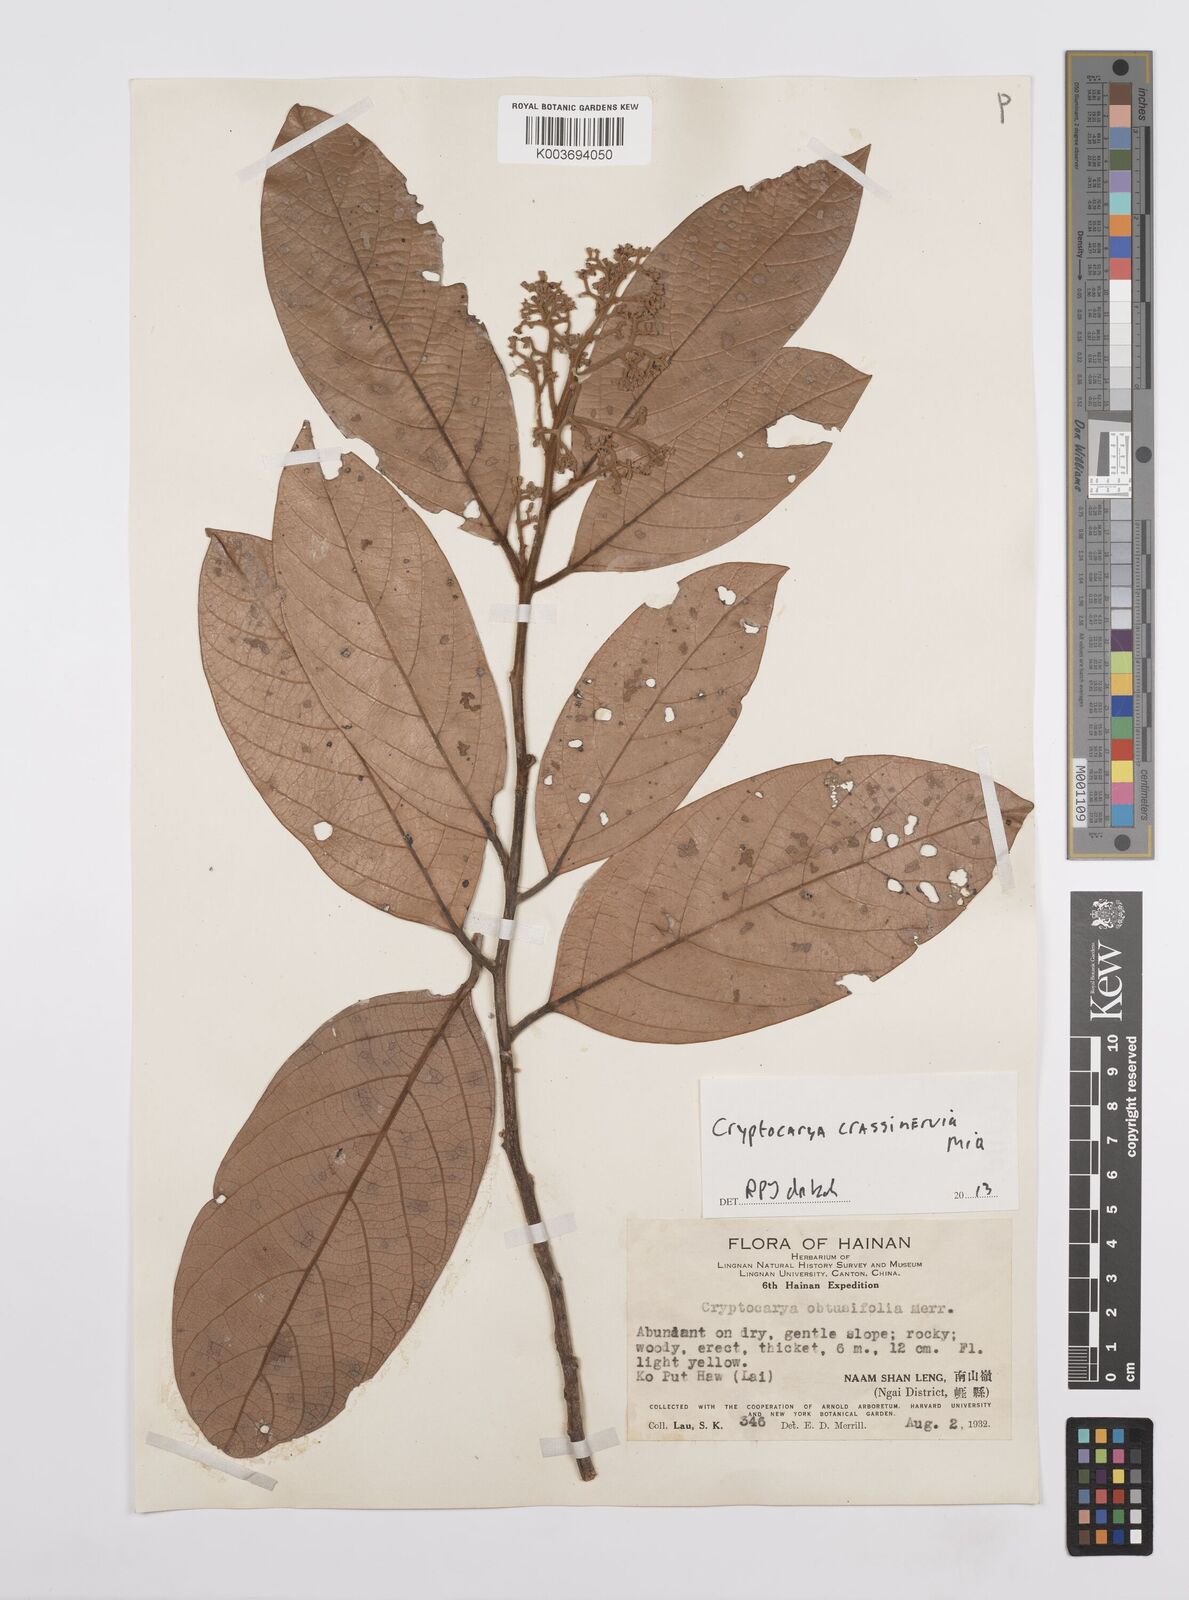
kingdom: Plantae
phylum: Tracheophyta
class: Magnoliopsida
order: Laurales
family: Lauraceae
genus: Cryptocarya
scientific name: Cryptocarya diversifolia
